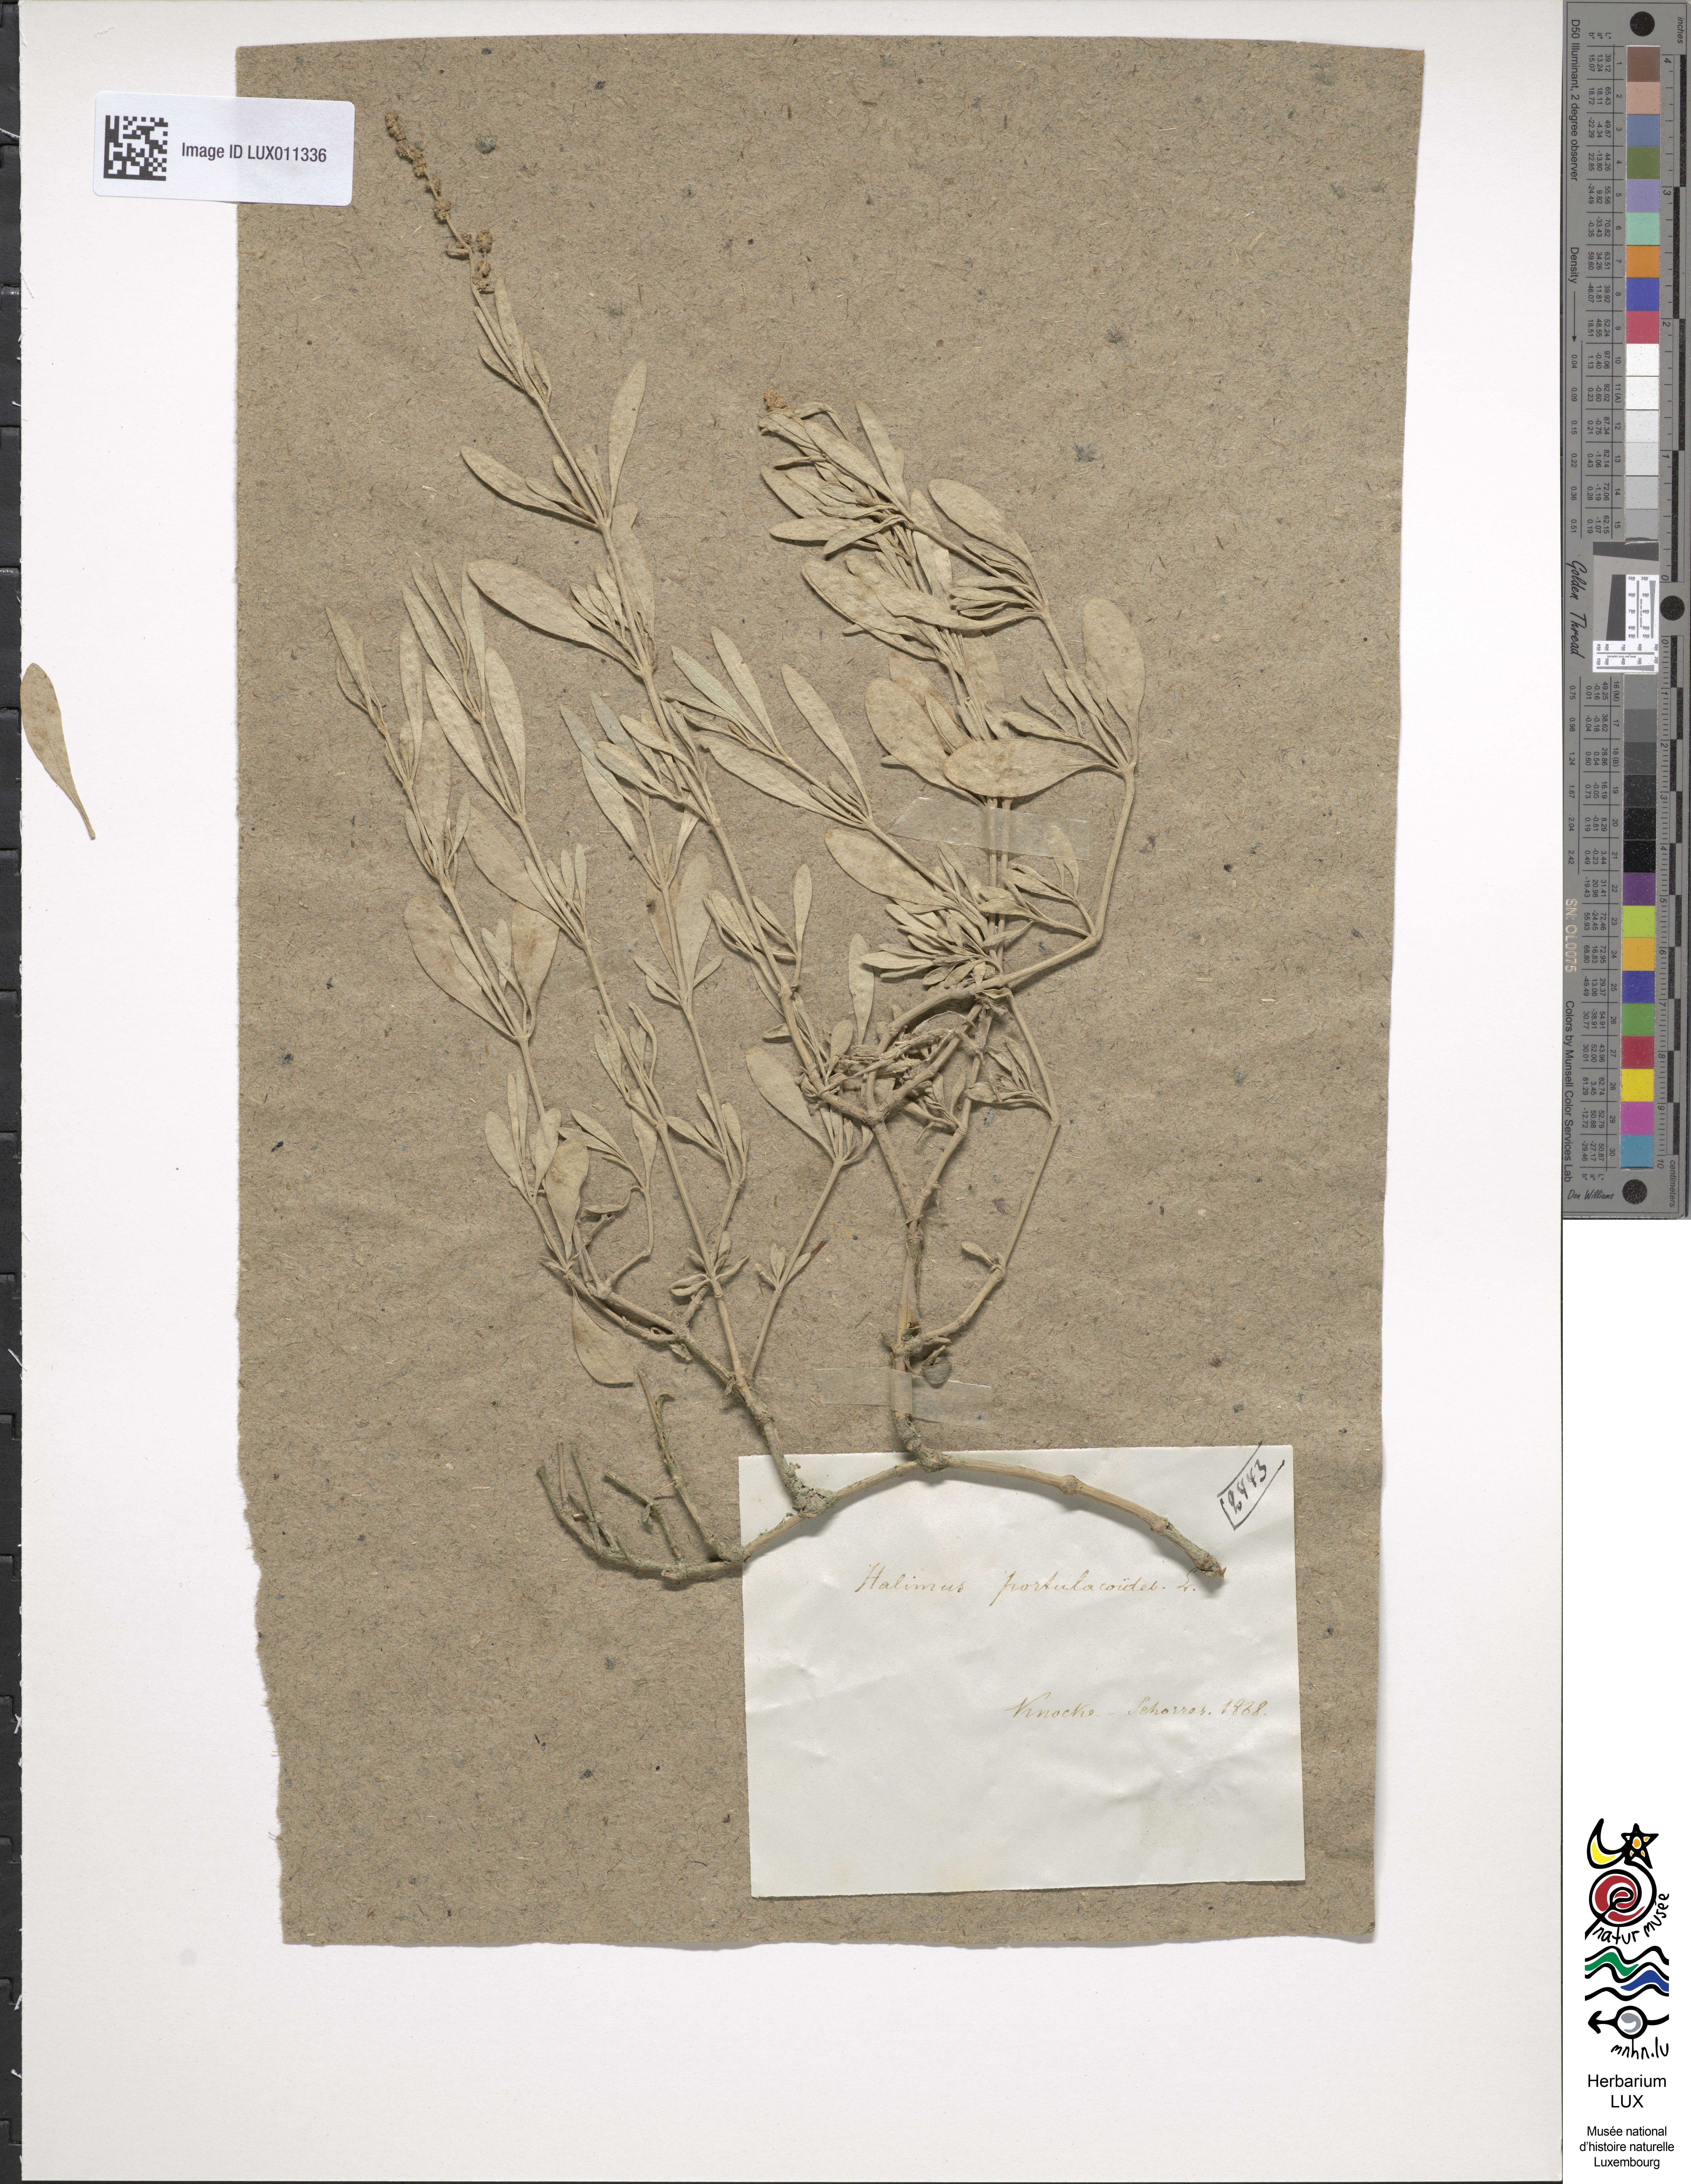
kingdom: Plantae
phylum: Tracheophyta
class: Magnoliopsida
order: Caryophyllales
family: Amaranthaceae
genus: Halimione
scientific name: Halimione portulacoides
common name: Sea-purslane
